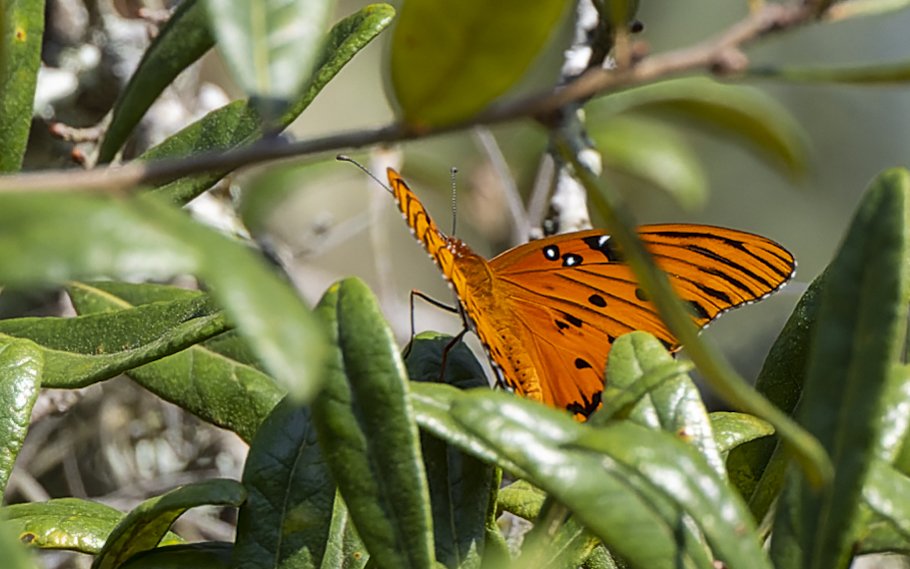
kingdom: Animalia
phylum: Arthropoda
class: Insecta
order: Lepidoptera
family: Nymphalidae
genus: Dione
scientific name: Dione vanillae
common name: Gulf Fritillary
